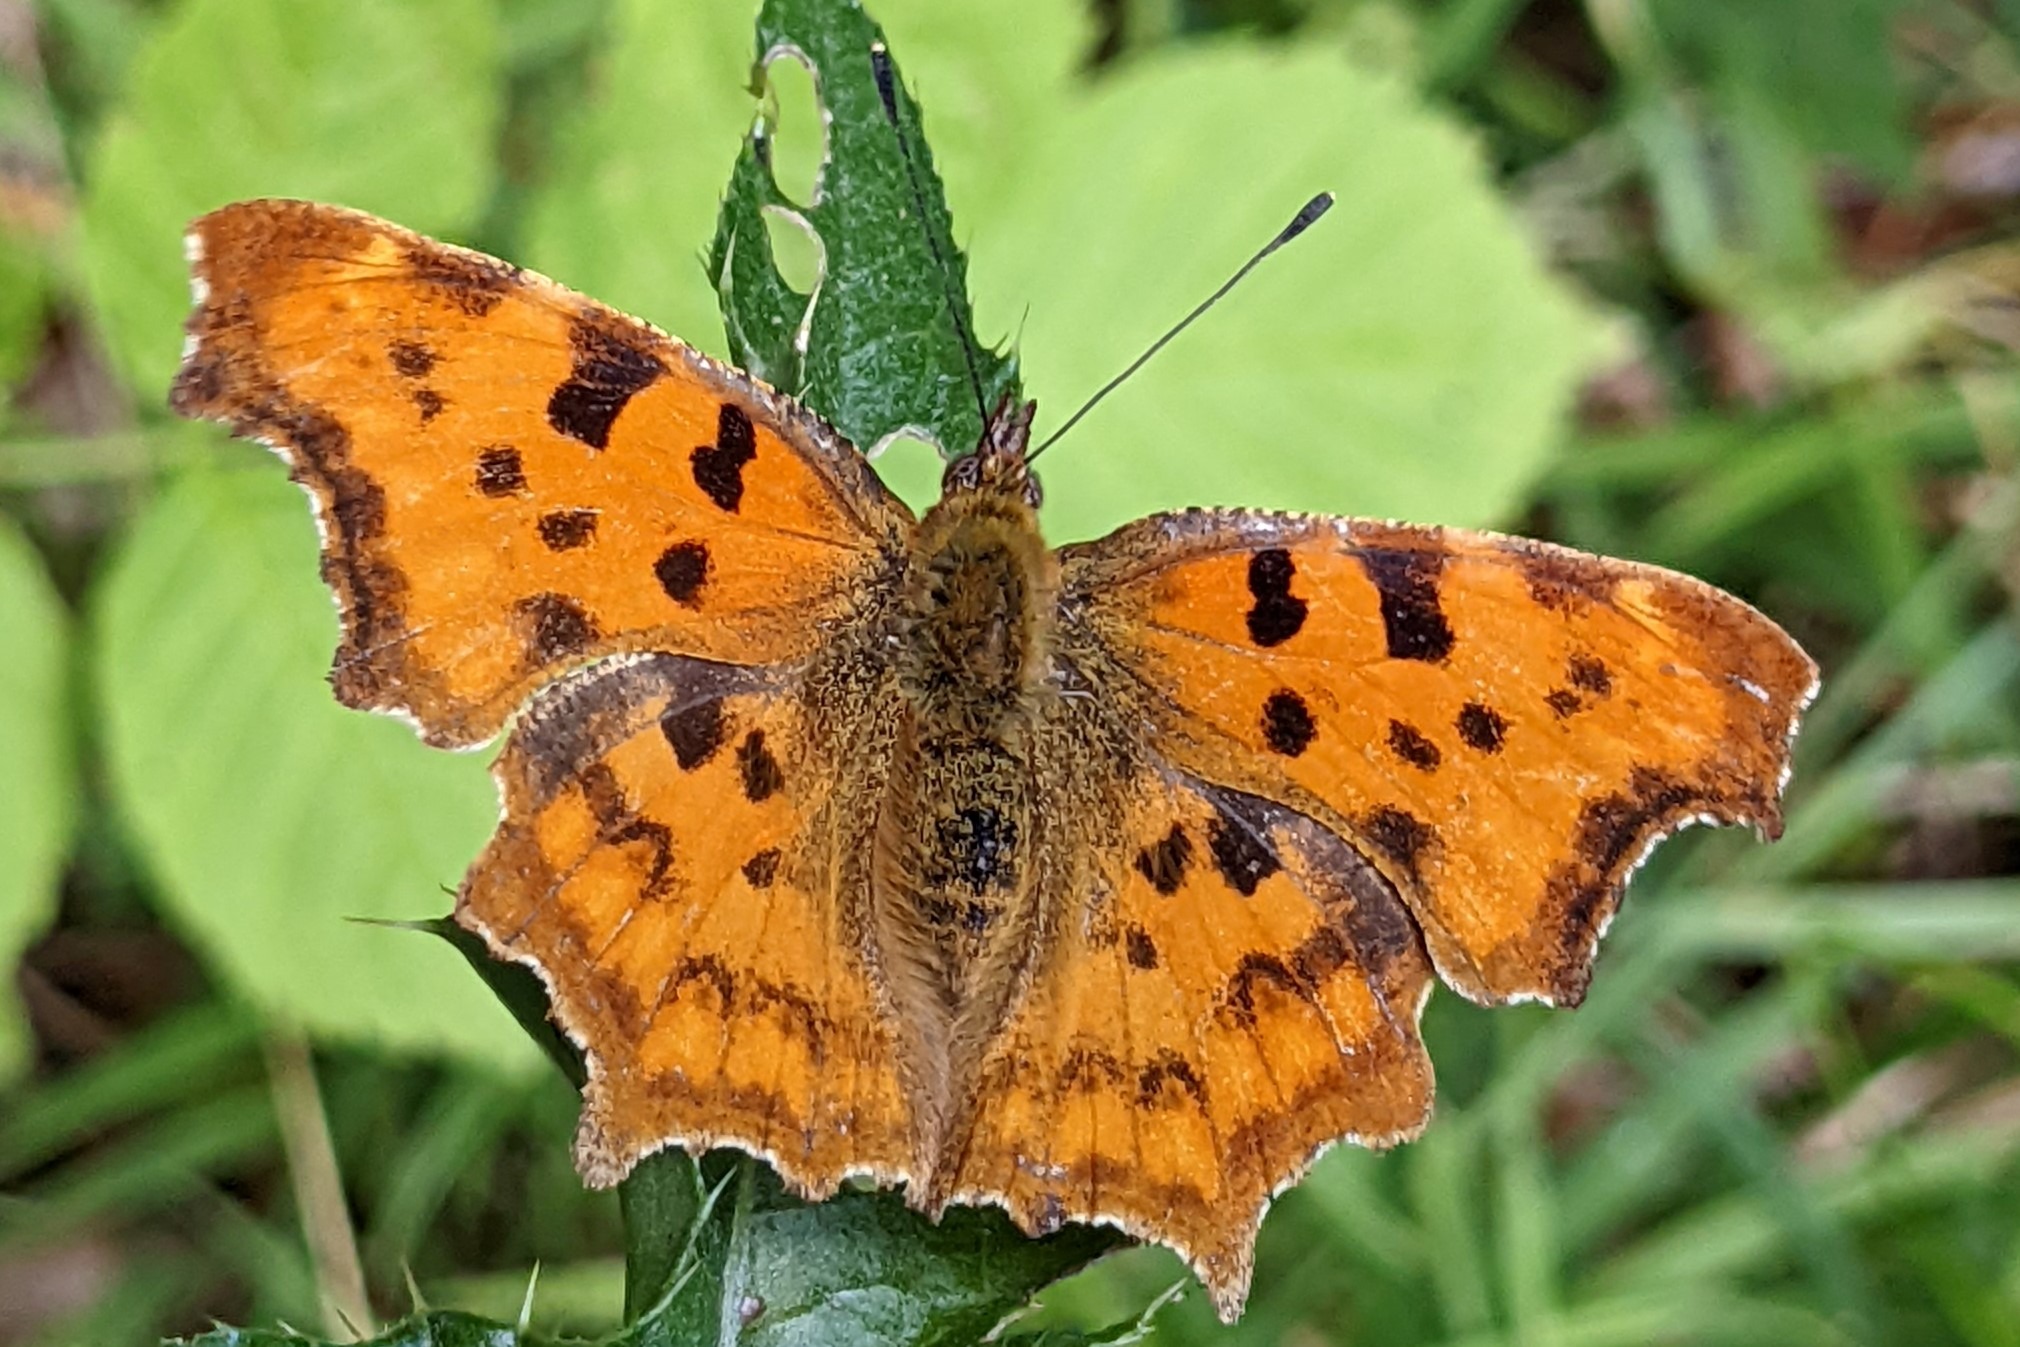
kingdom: Animalia
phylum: Arthropoda
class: Insecta
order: Lepidoptera
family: Nymphalidae
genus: Polygonia
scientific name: Polygonia c-album
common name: Det hvide C
